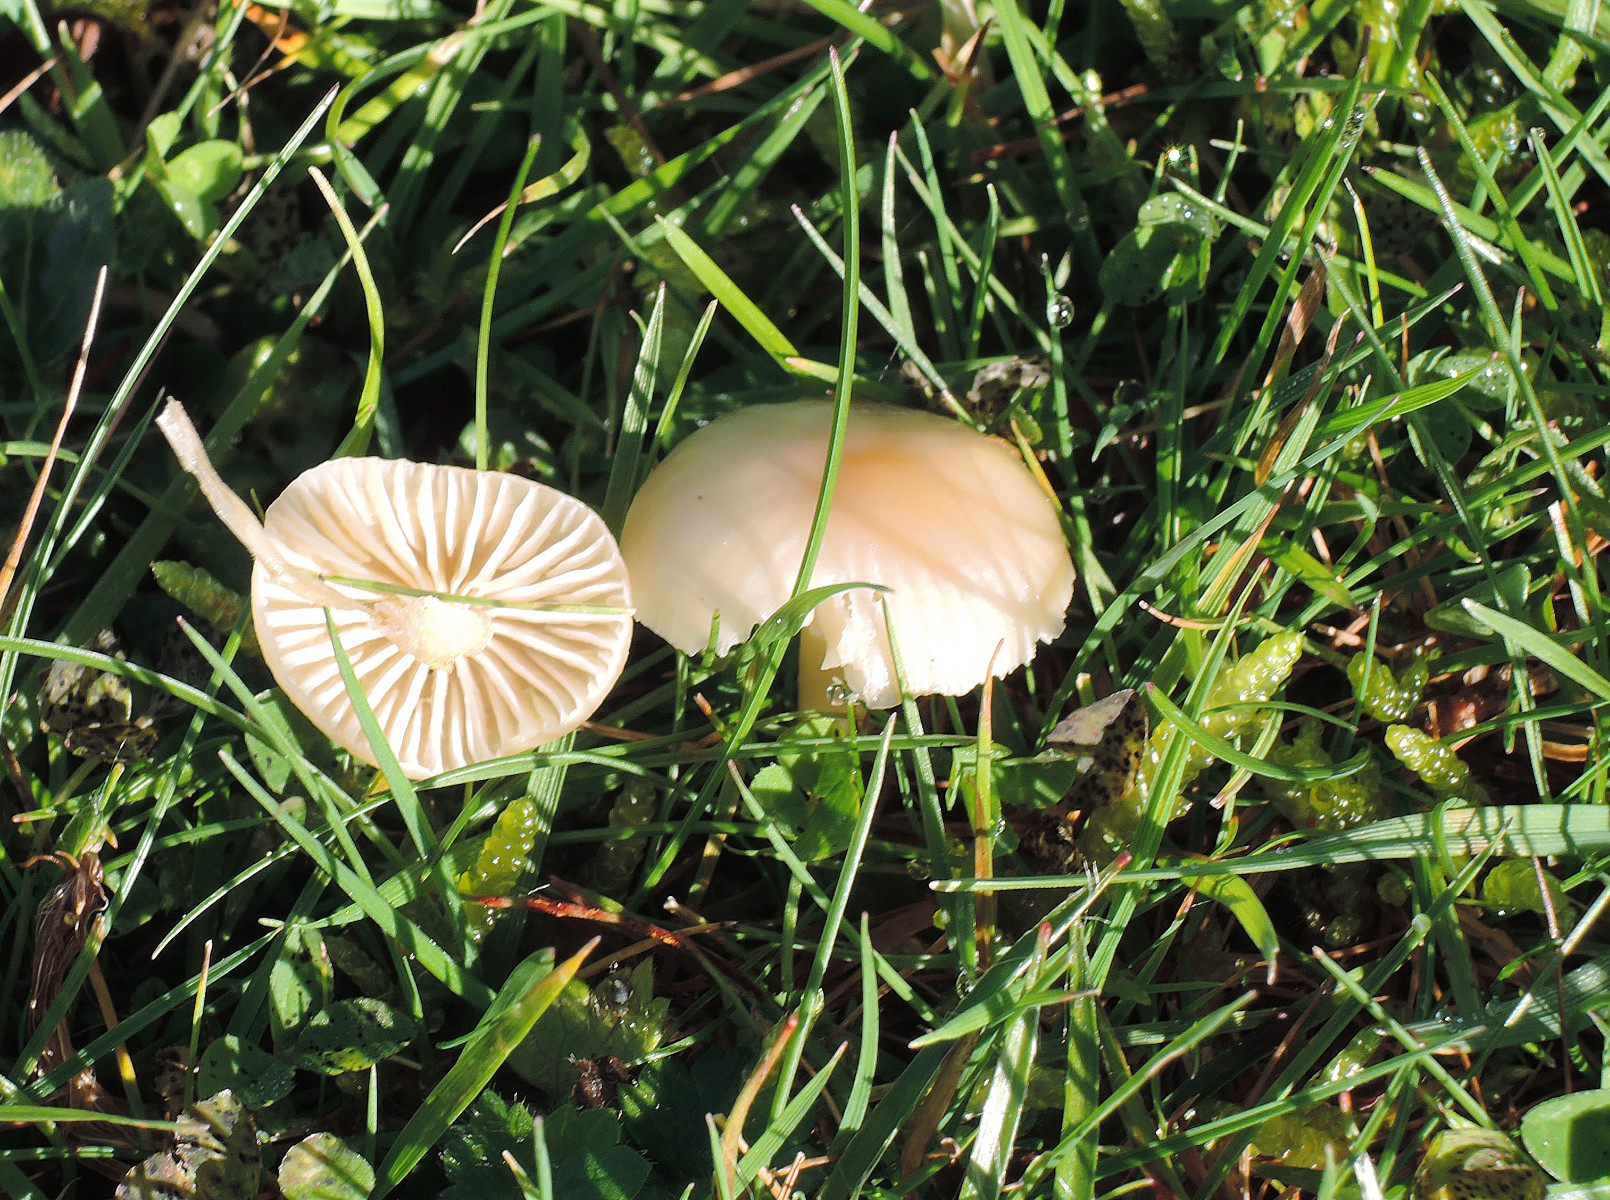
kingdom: Fungi
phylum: Basidiomycota
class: Agaricomycetes
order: Agaricales
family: Hygrophoraceae
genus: Cuphophyllus
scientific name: Cuphophyllus russocoriaceus
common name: ruslæder-vokshat
